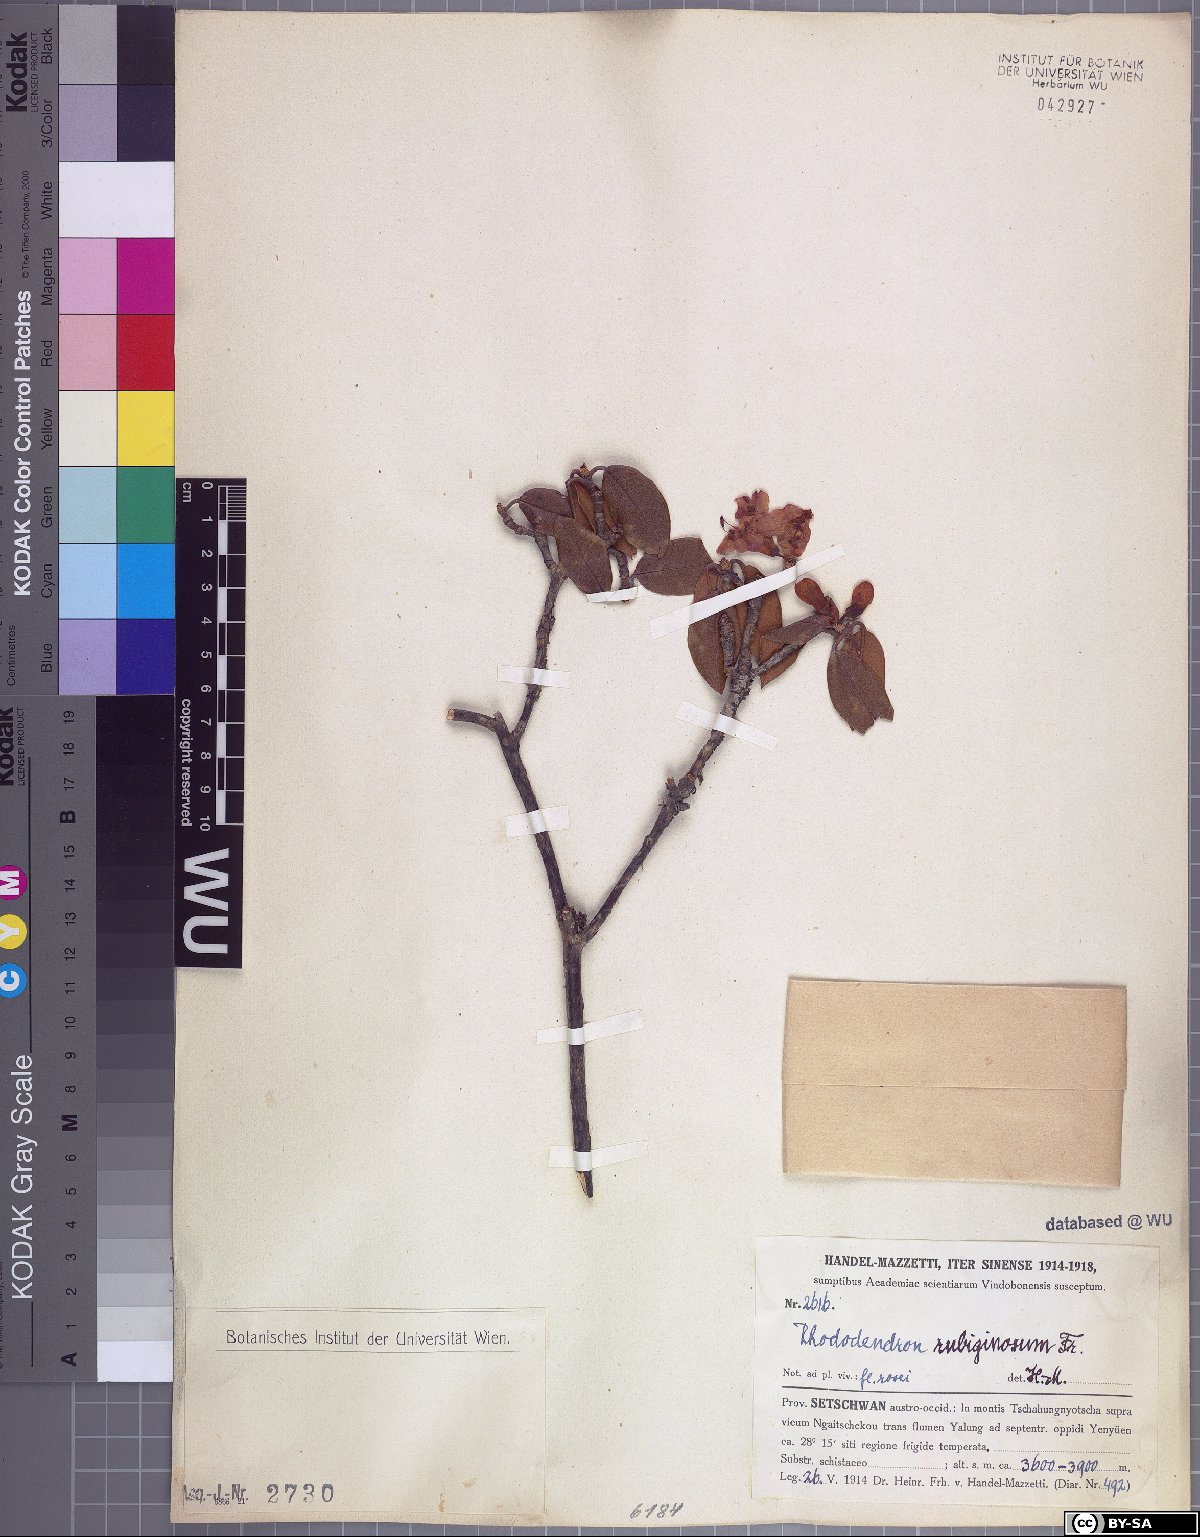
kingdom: Plantae
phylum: Tracheophyta
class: Magnoliopsida
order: Ericales
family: Ericaceae
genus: Rhododendron
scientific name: Rhododendron rubiginosum
